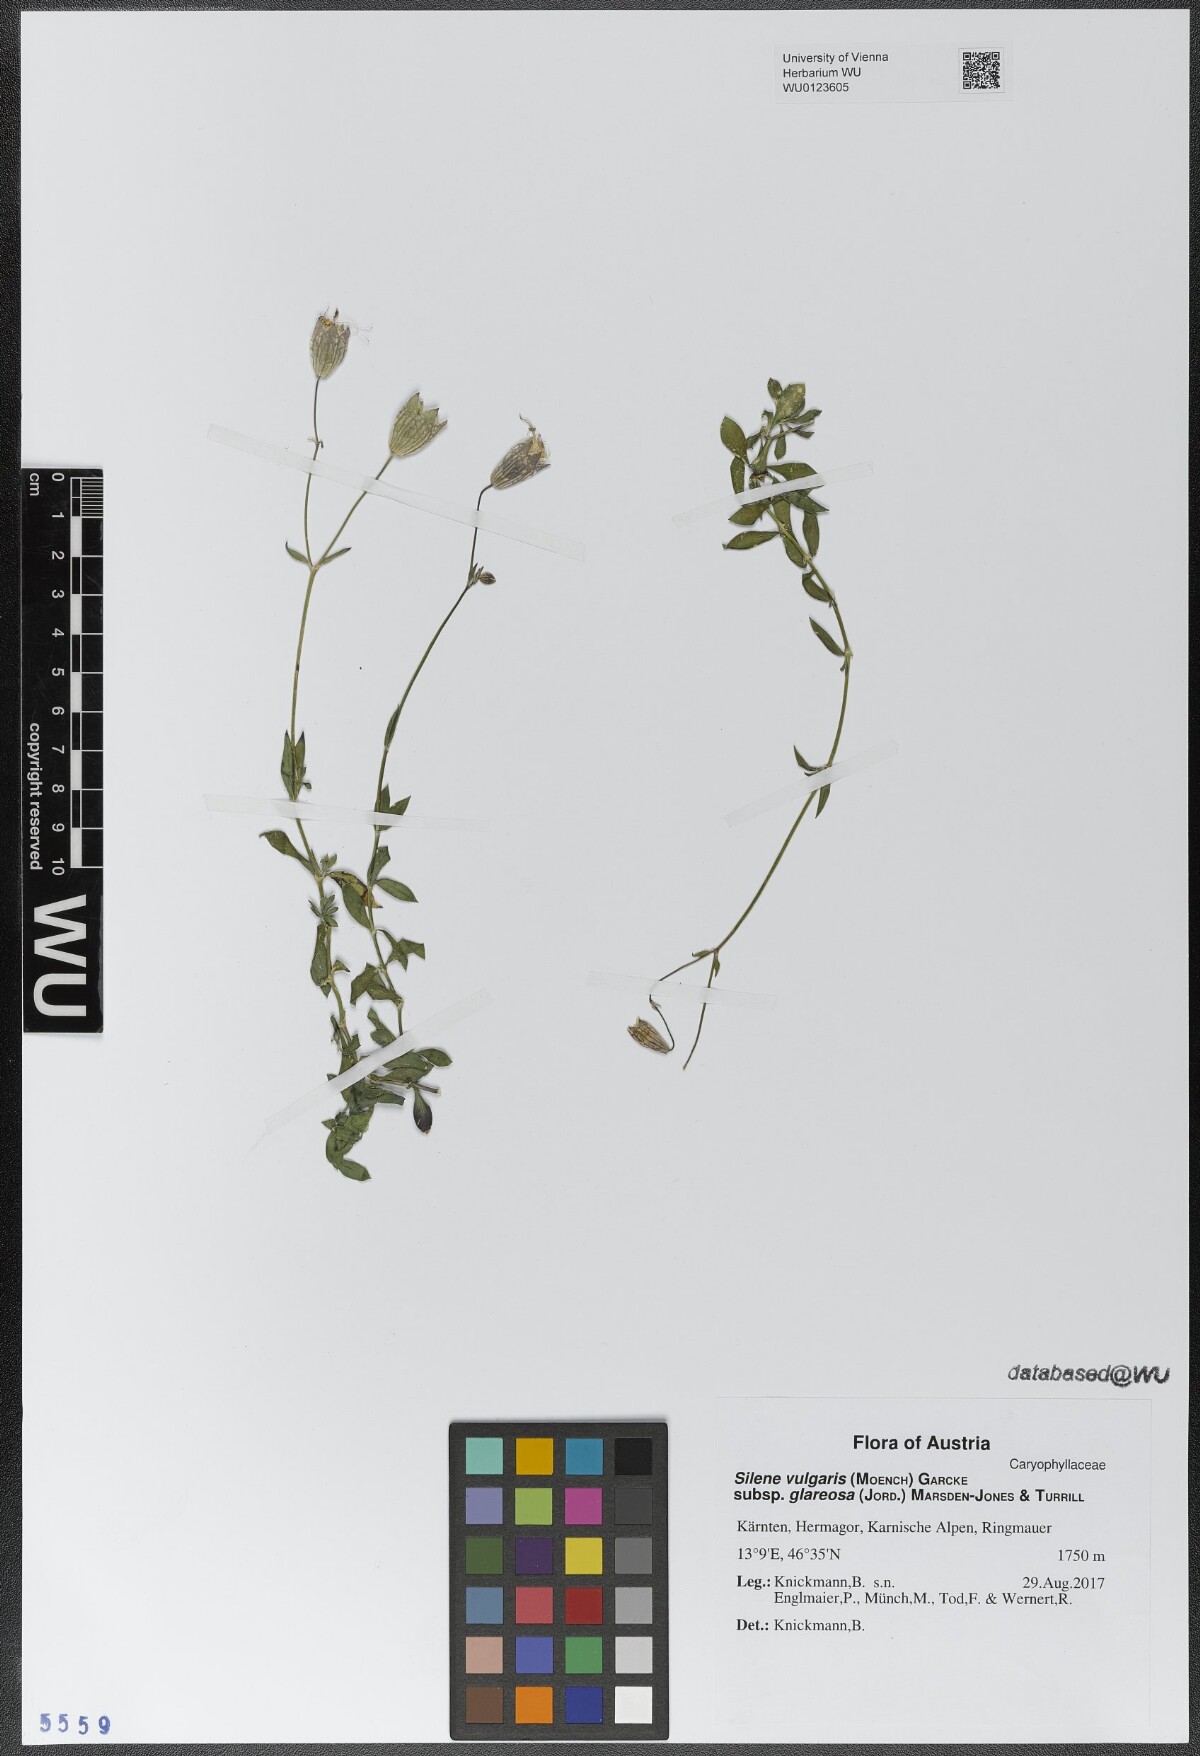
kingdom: Plantae
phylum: Tracheophyta
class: Magnoliopsida
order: Caryophyllales
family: Caryophyllaceae
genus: Silene
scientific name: Silene glareosa
